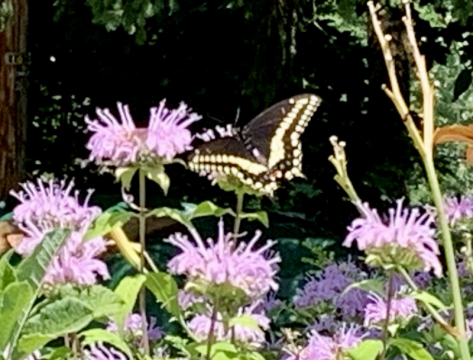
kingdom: Animalia
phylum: Arthropoda
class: Insecta
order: Lepidoptera
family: Papilionidae
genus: Papilio
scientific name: Papilio polyxenes
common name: Black Swallowtail
